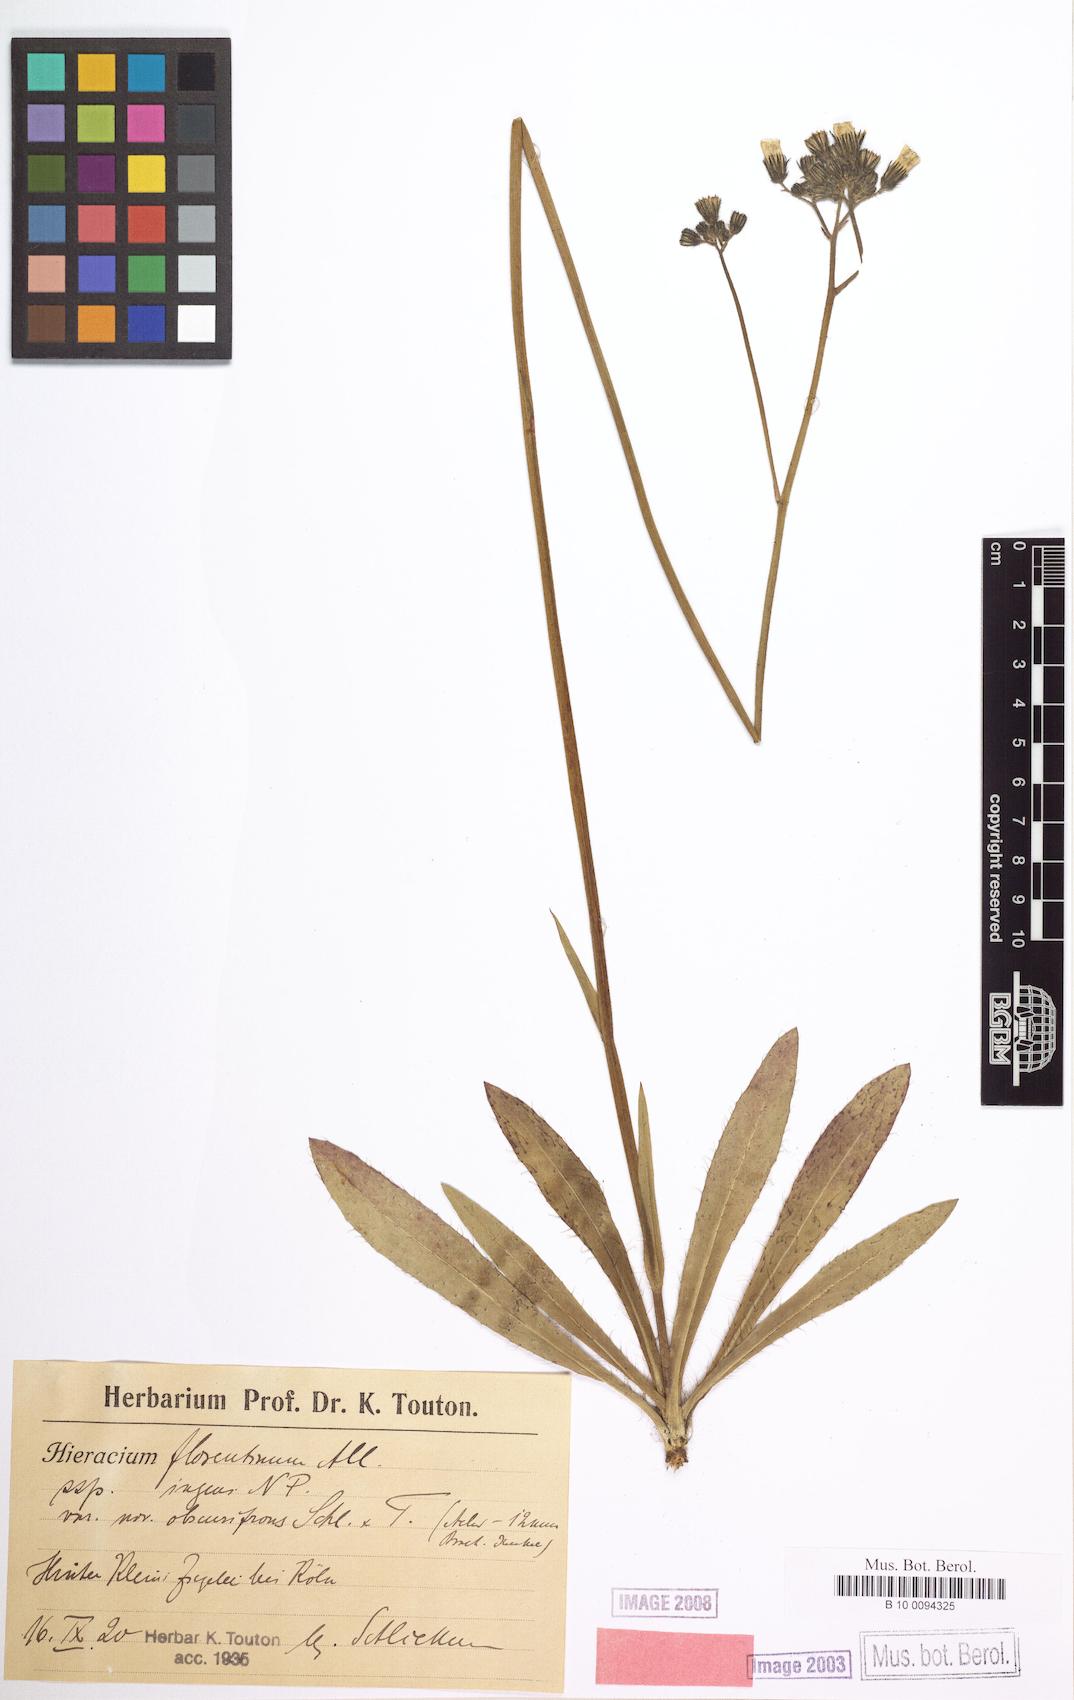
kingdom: Plantae
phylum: Tracheophyta
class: Magnoliopsida
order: Asterales
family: Asteraceae
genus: Hieracium
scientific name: Hieracium florentinum
